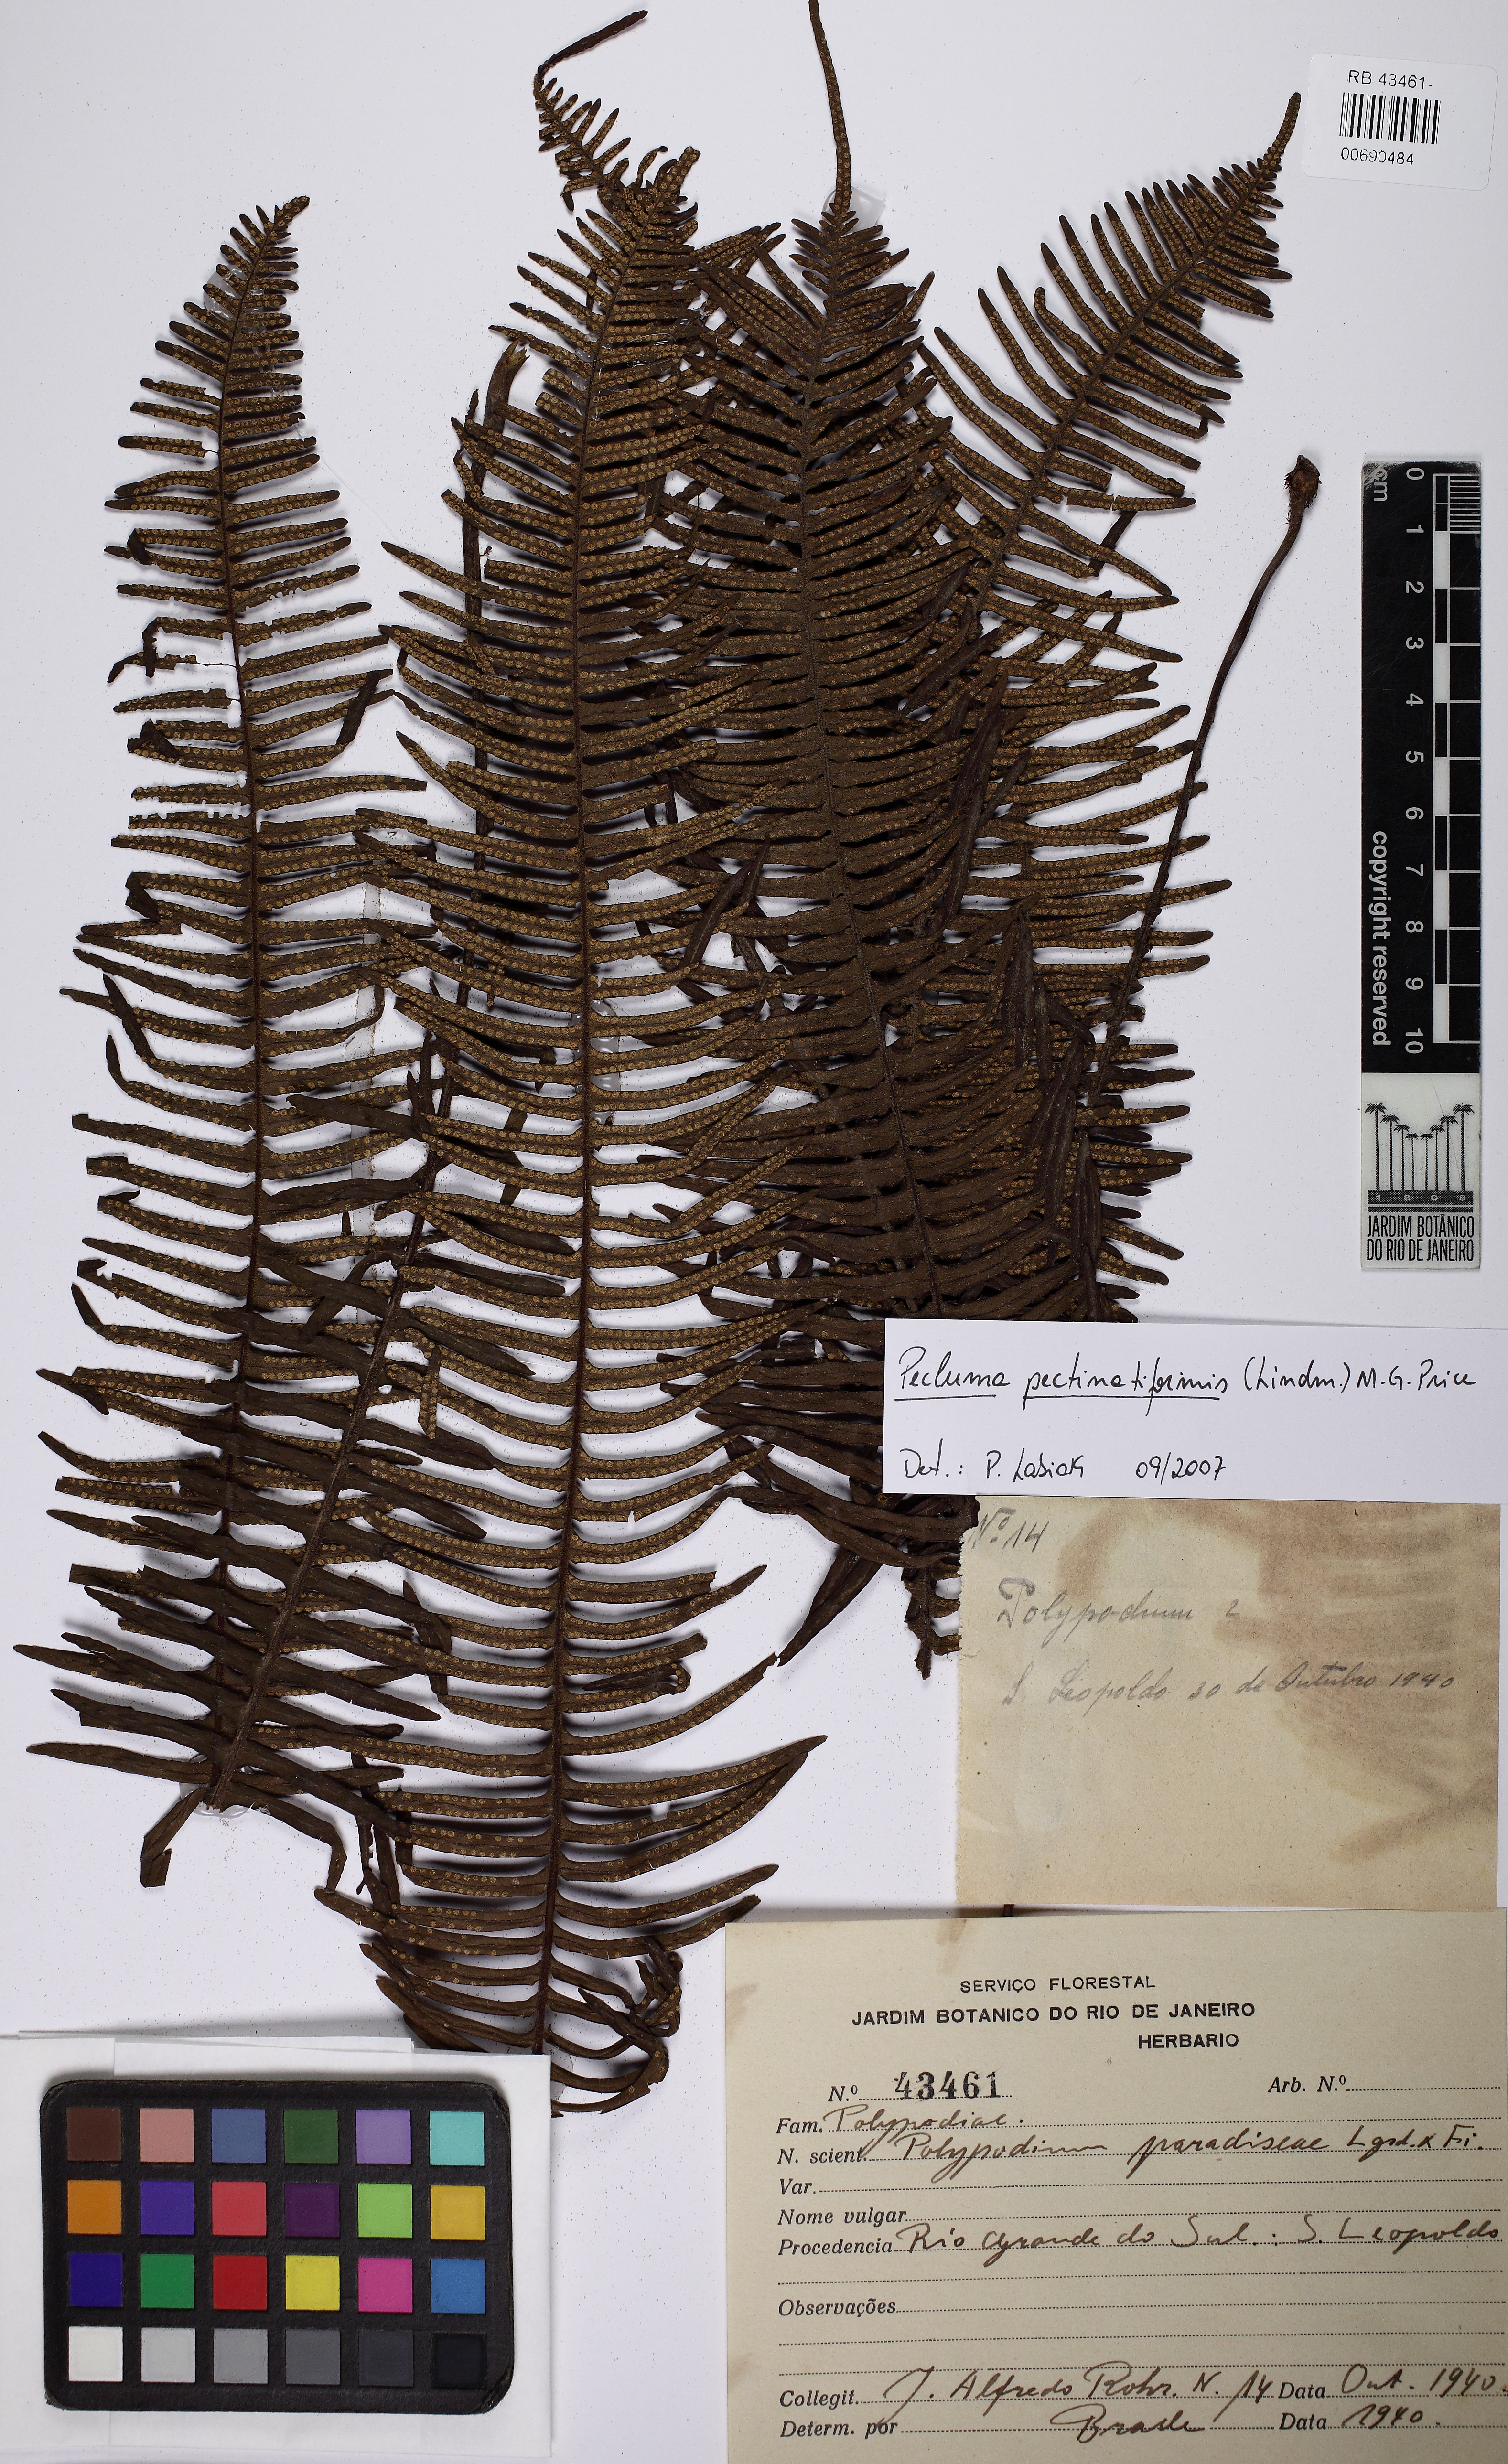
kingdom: Plantae
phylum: Tracheophyta
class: Polypodiopsida
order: Polypodiales
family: Polypodiaceae
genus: Pecluma
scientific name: Pecluma pectinatiformis
